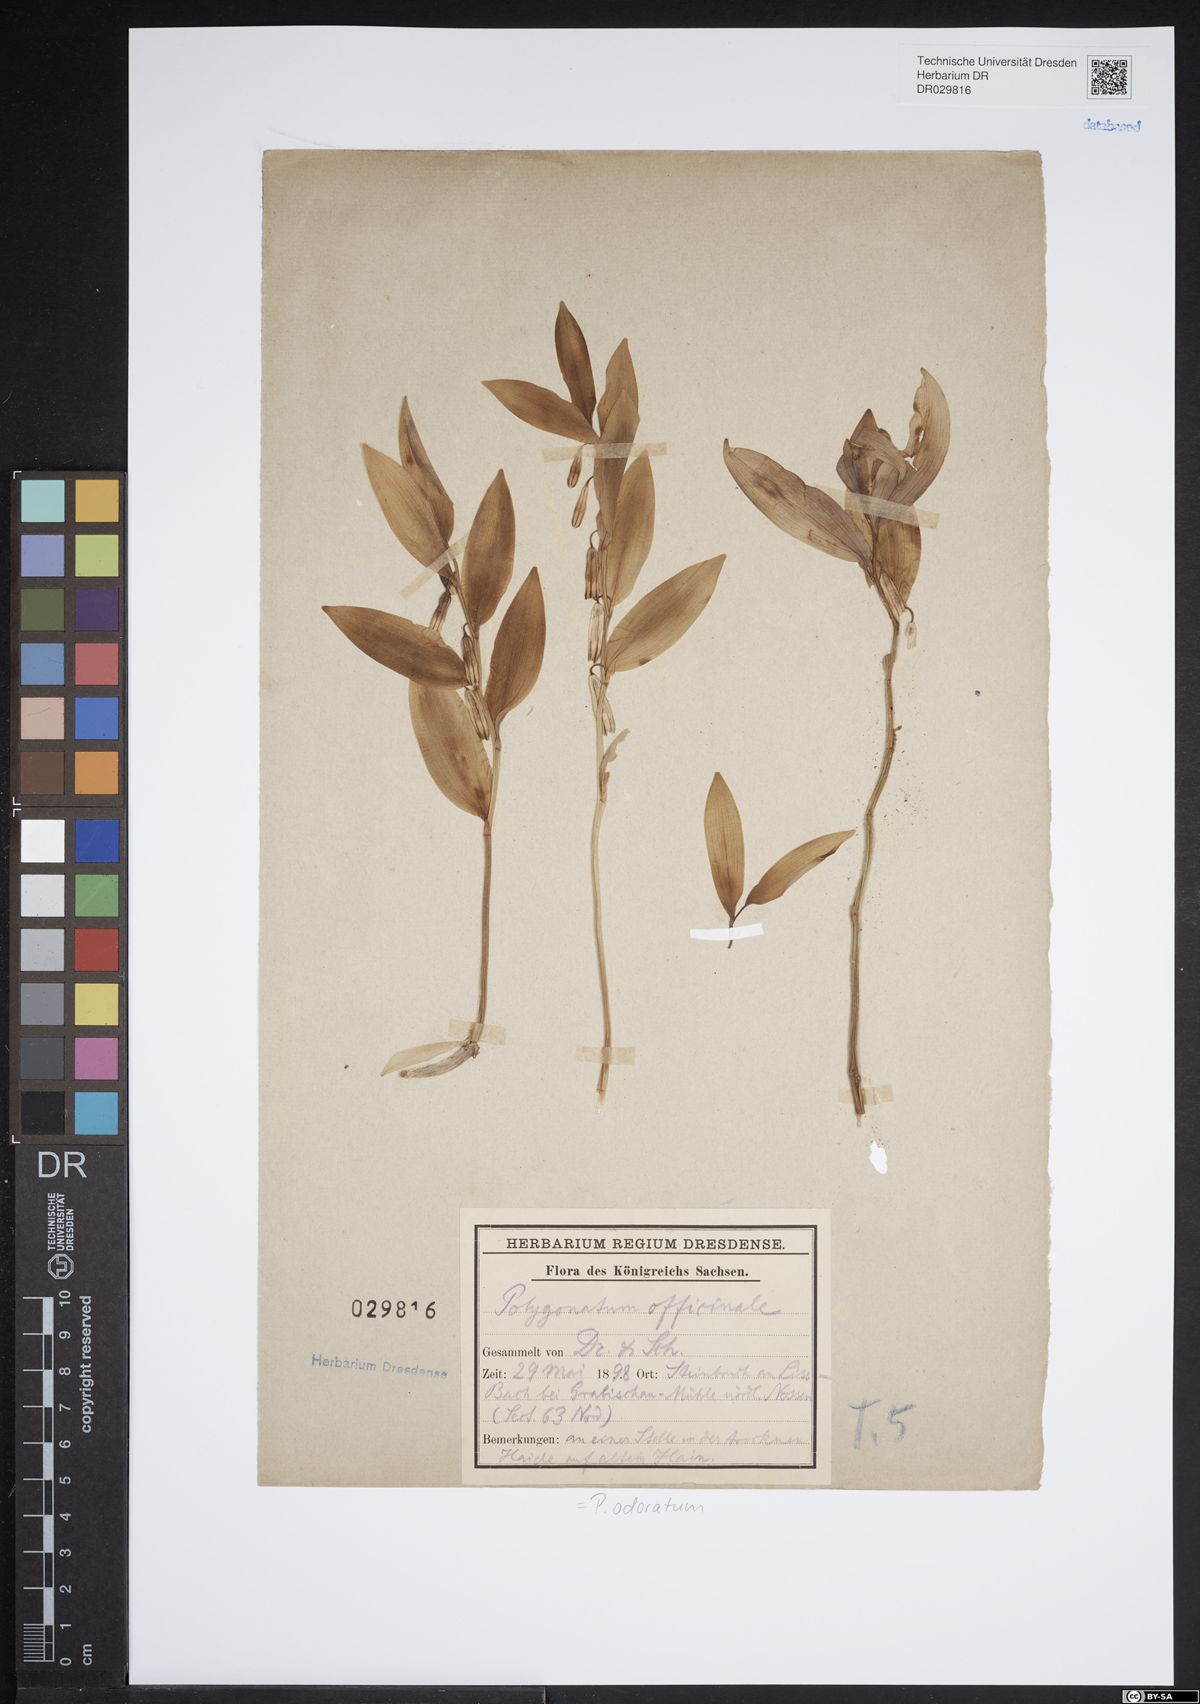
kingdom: Plantae
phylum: Tracheophyta
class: Liliopsida
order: Asparagales
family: Asparagaceae
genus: Polygonatum
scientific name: Polygonatum odoratum
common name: Angular solomon's-seal
